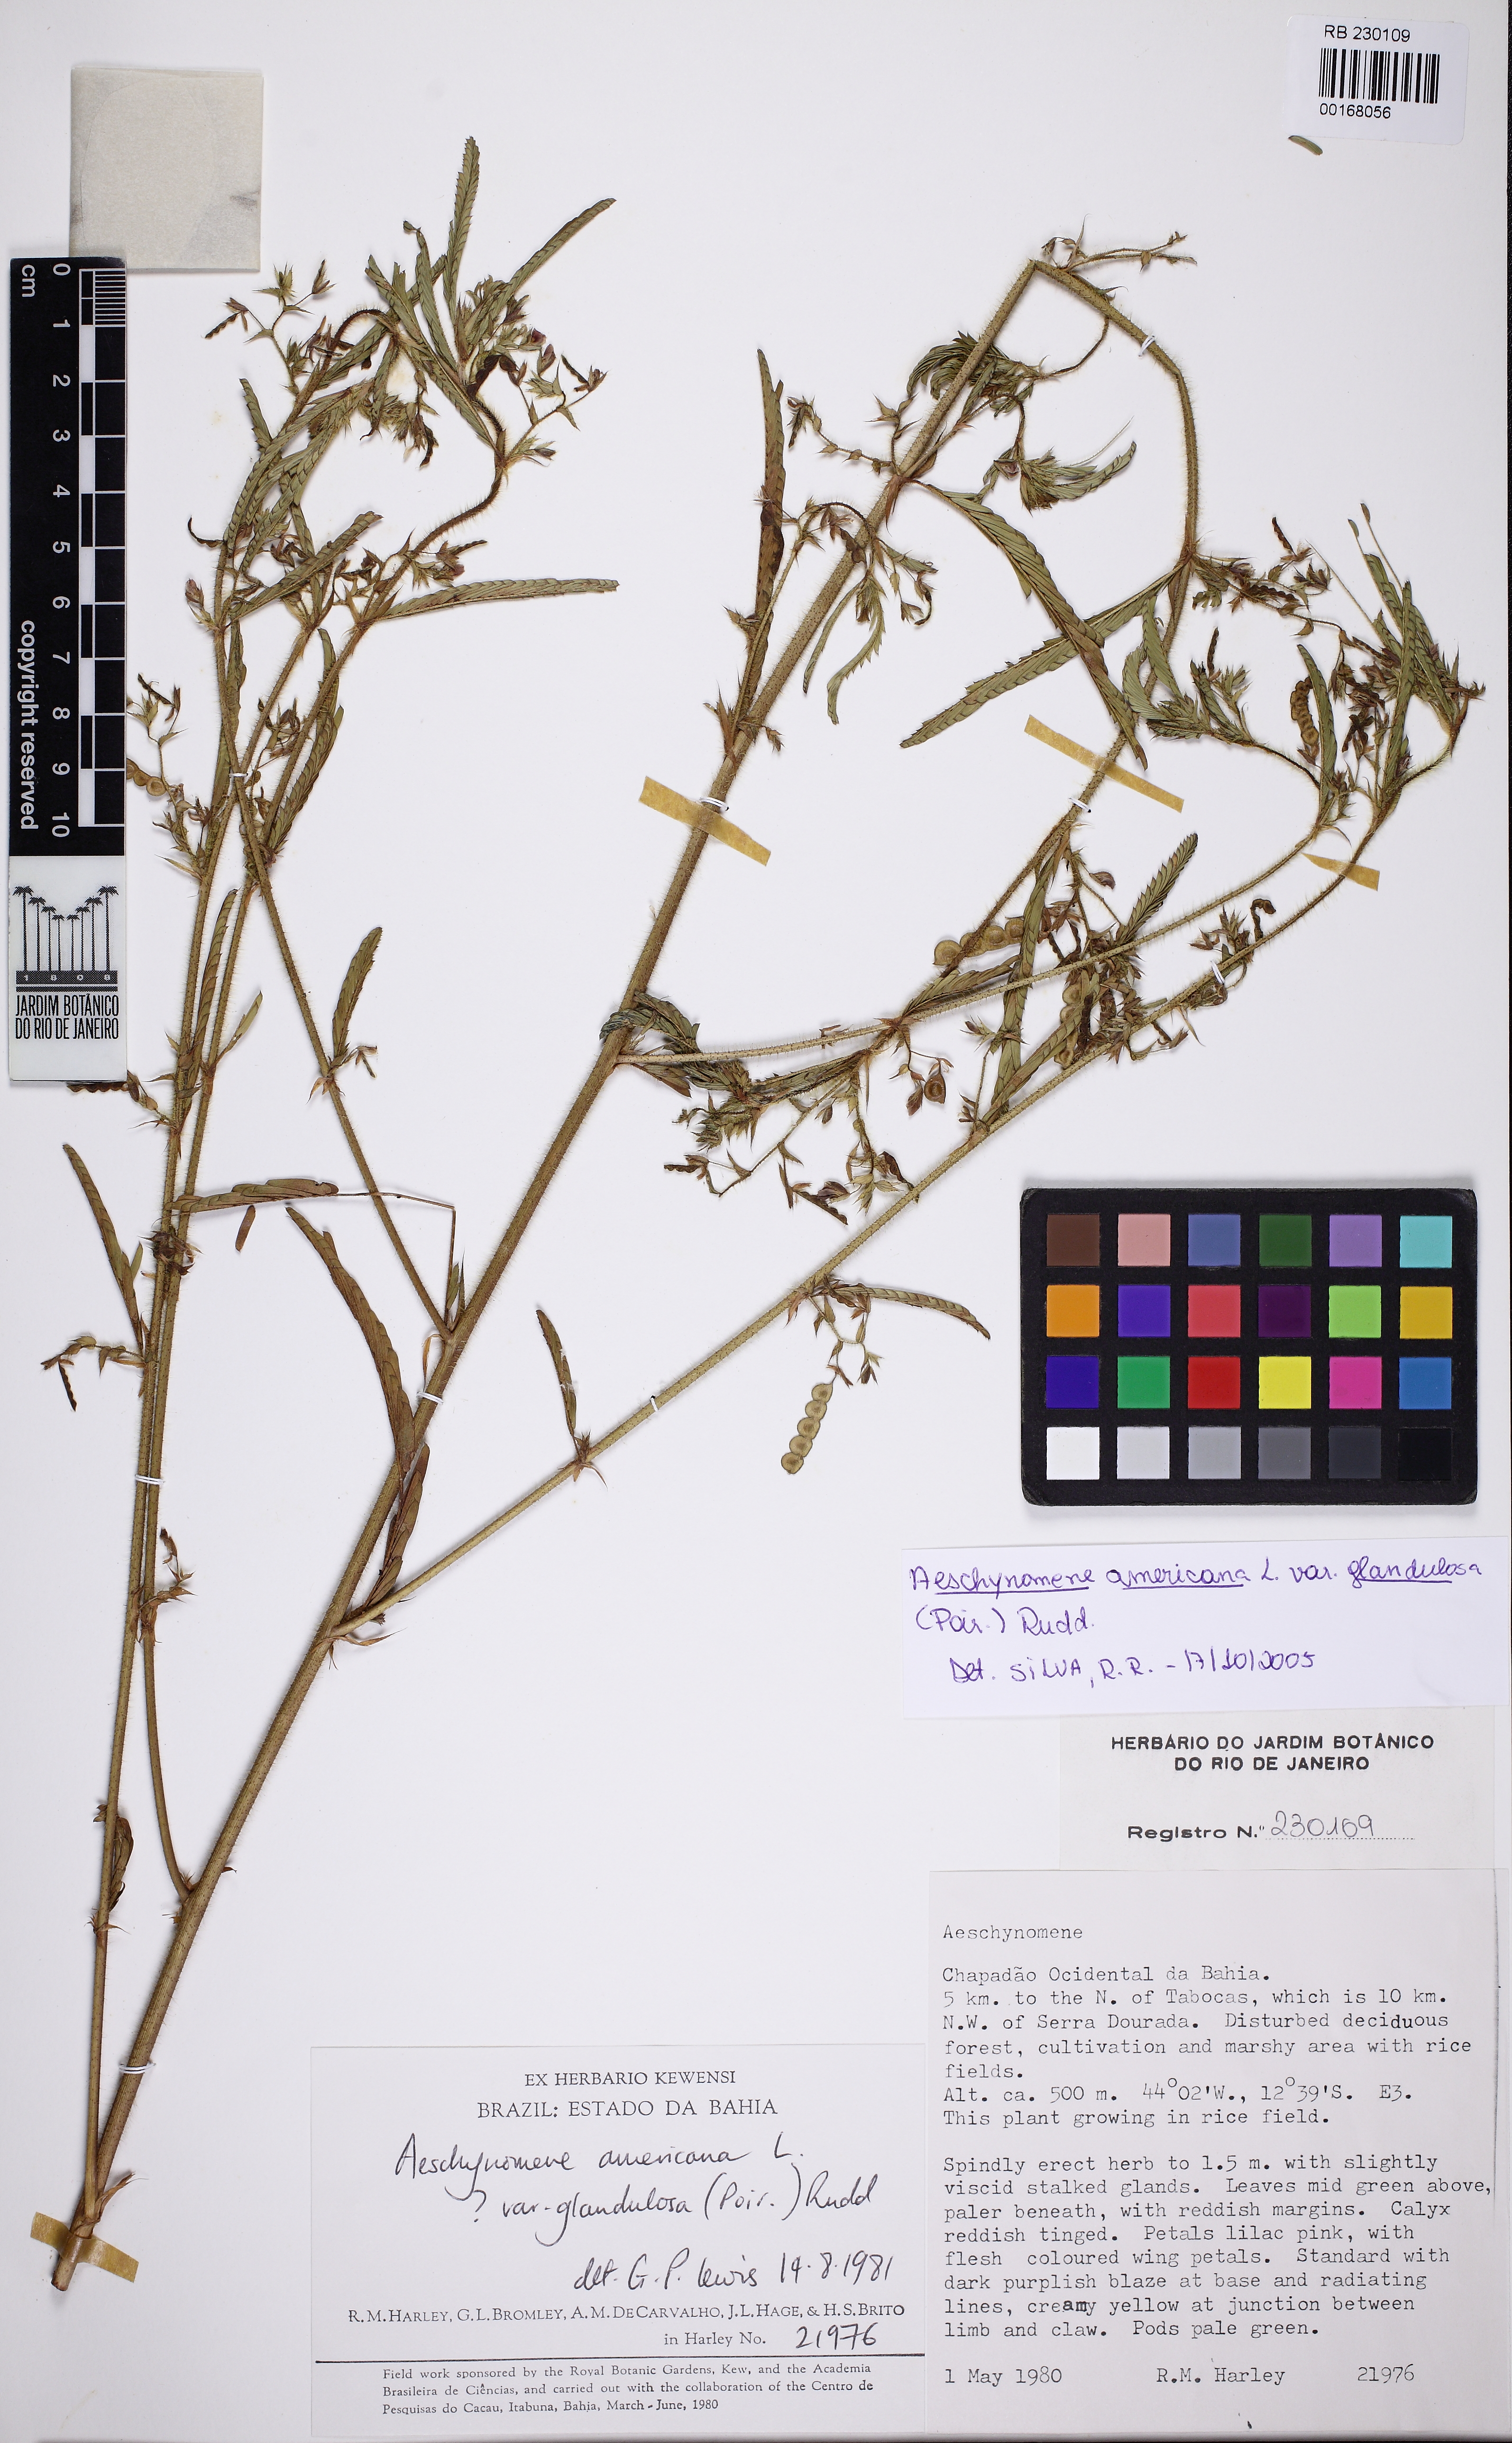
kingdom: Plantae
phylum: Tracheophyta
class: Magnoliopsida
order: Fabales
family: Fabaceae
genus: Aeschynomene
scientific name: Aeschynomene americana
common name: Joint-vetch
